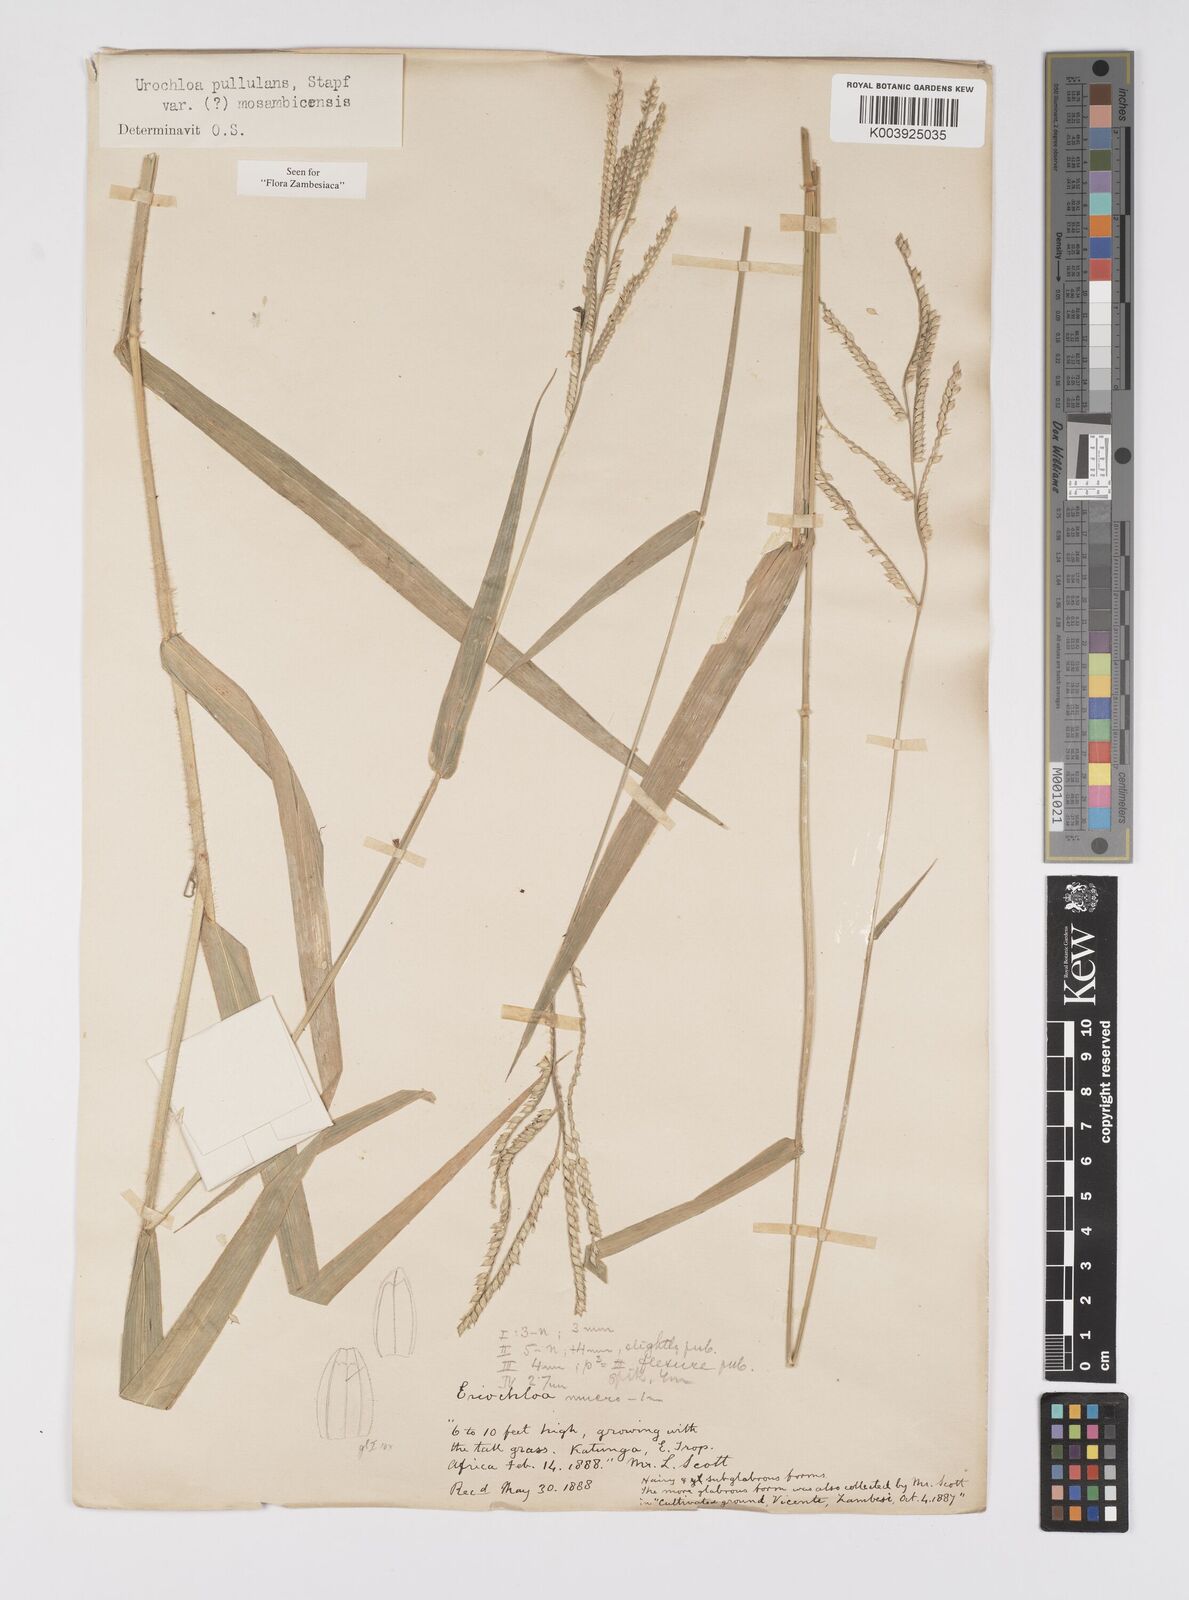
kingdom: Plantae
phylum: Tracheophyta
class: Liliopsida
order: Poales
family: Poaceae
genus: Urochloa
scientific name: Urochloa trichopus
